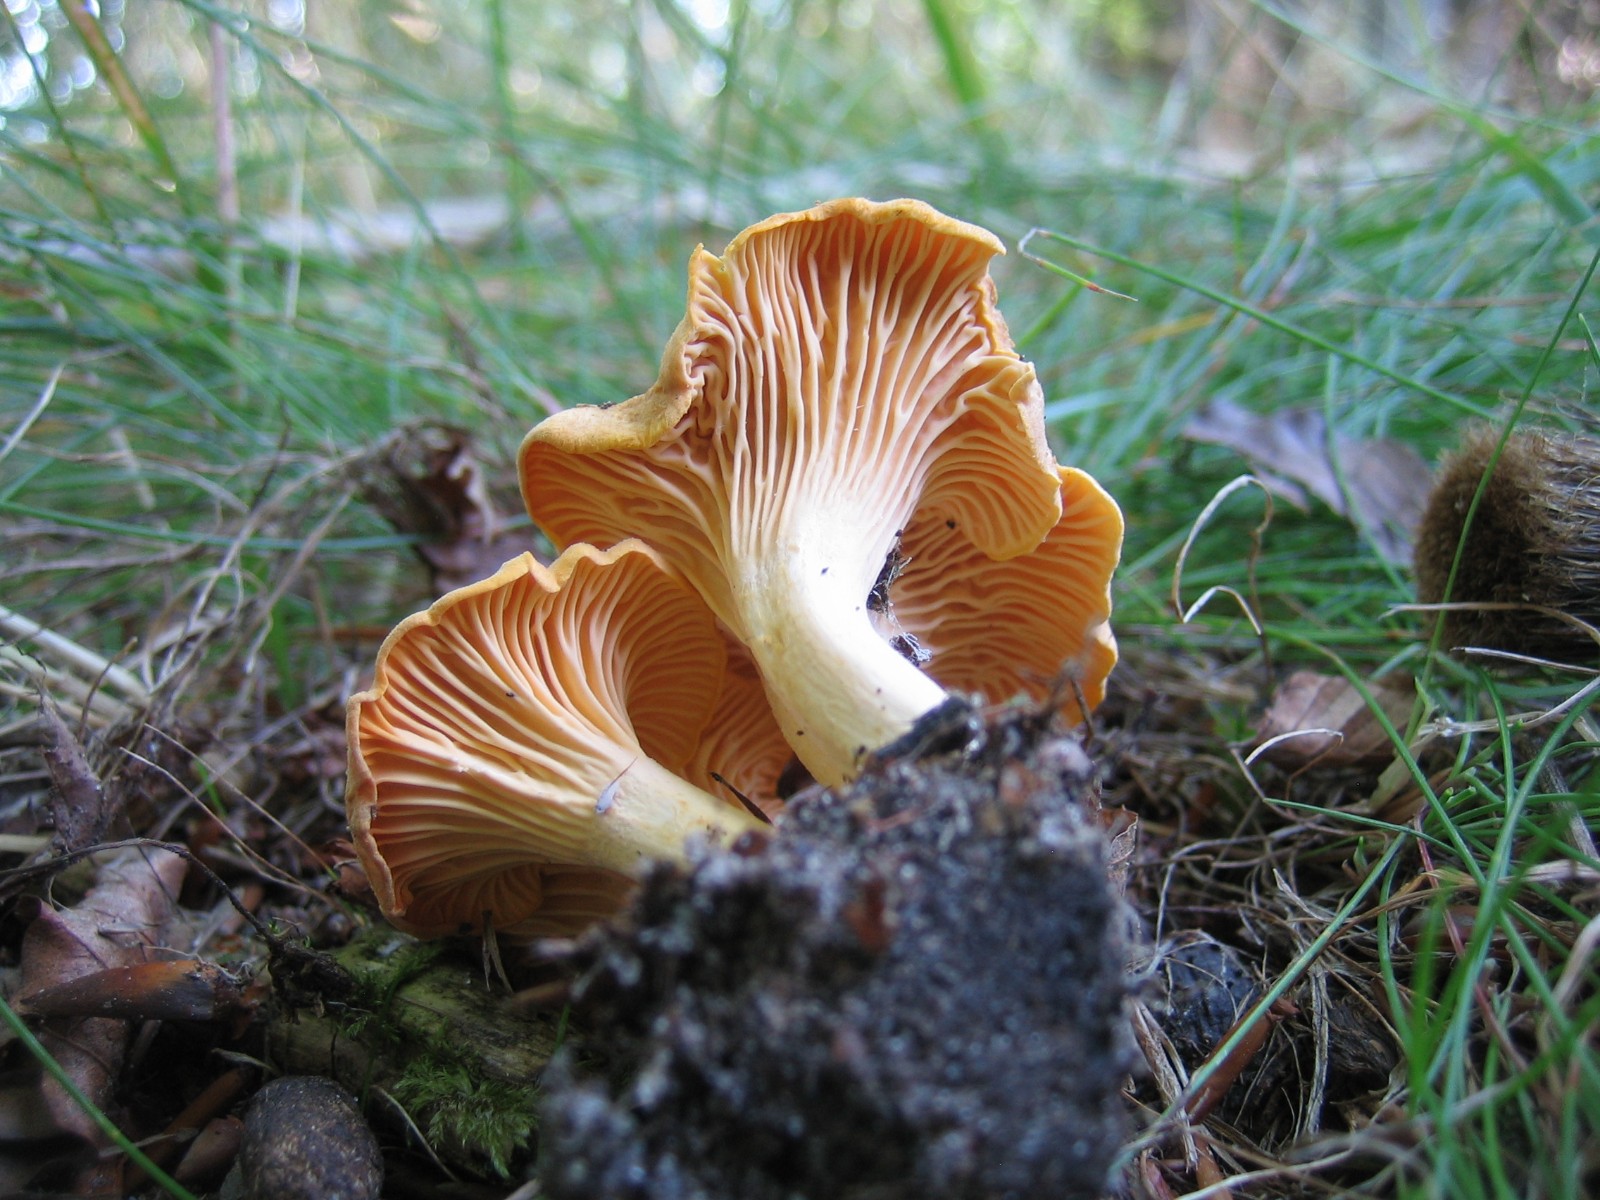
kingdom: Fungi
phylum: Basidiomycota
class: Agaricomycetes
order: Cantharellales
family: Hydnaceae
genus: Cantharellus
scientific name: Cantharellus cibarius
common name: almindelig kantarel
